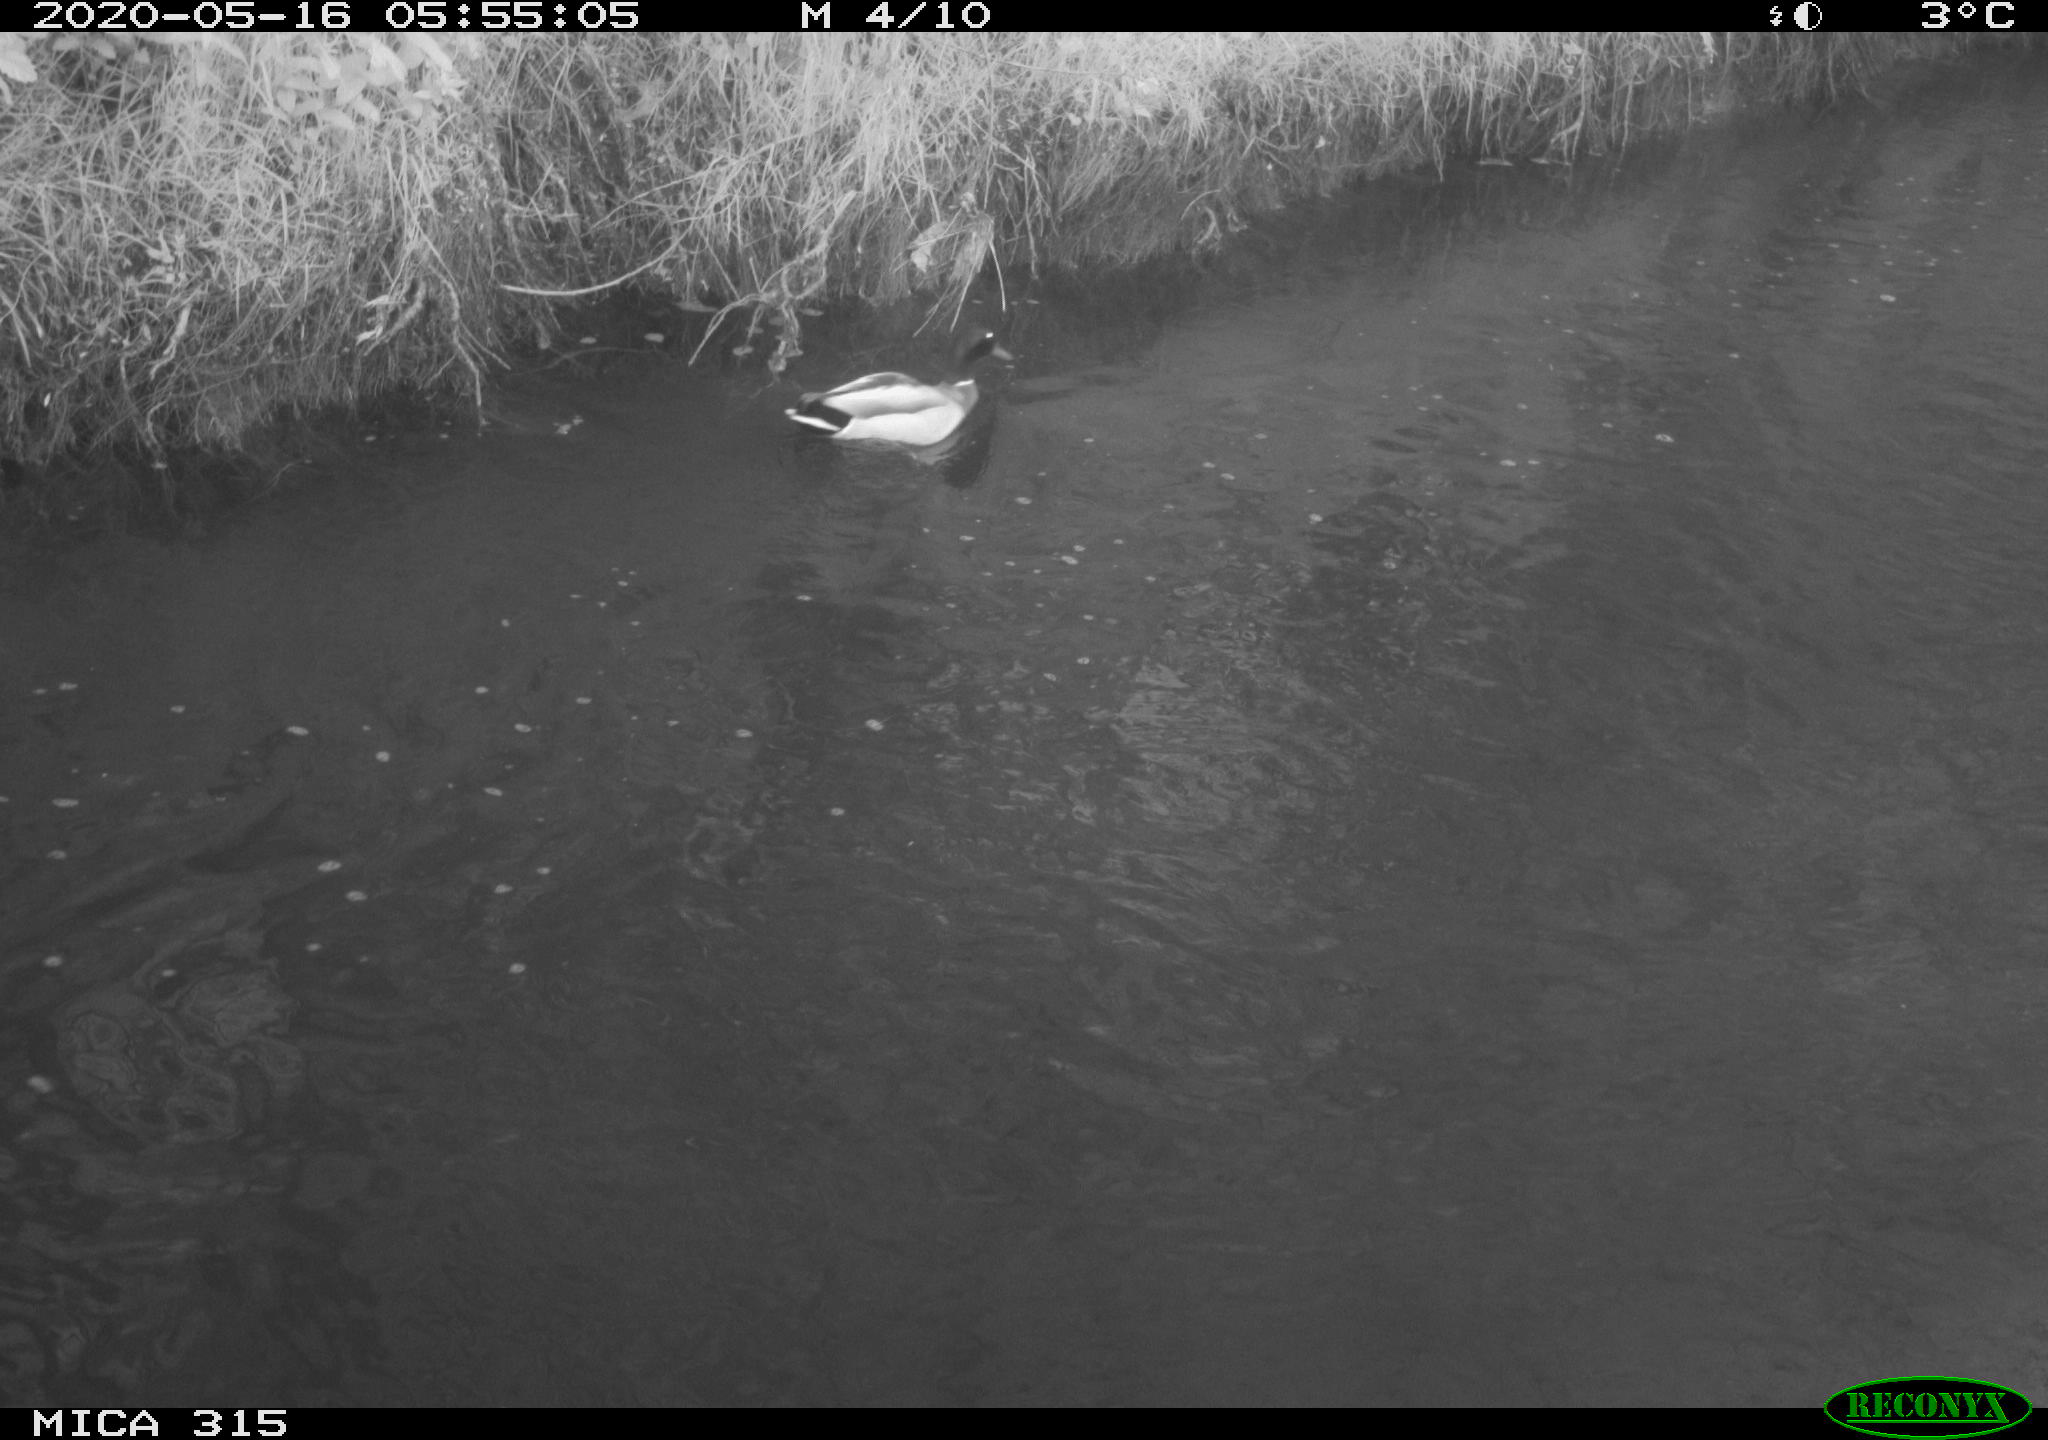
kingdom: Animalia
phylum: Chordata
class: Aves
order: Anseriformes
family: Anatidae
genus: Anas
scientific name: Anas platyrhynchos
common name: Mallard
